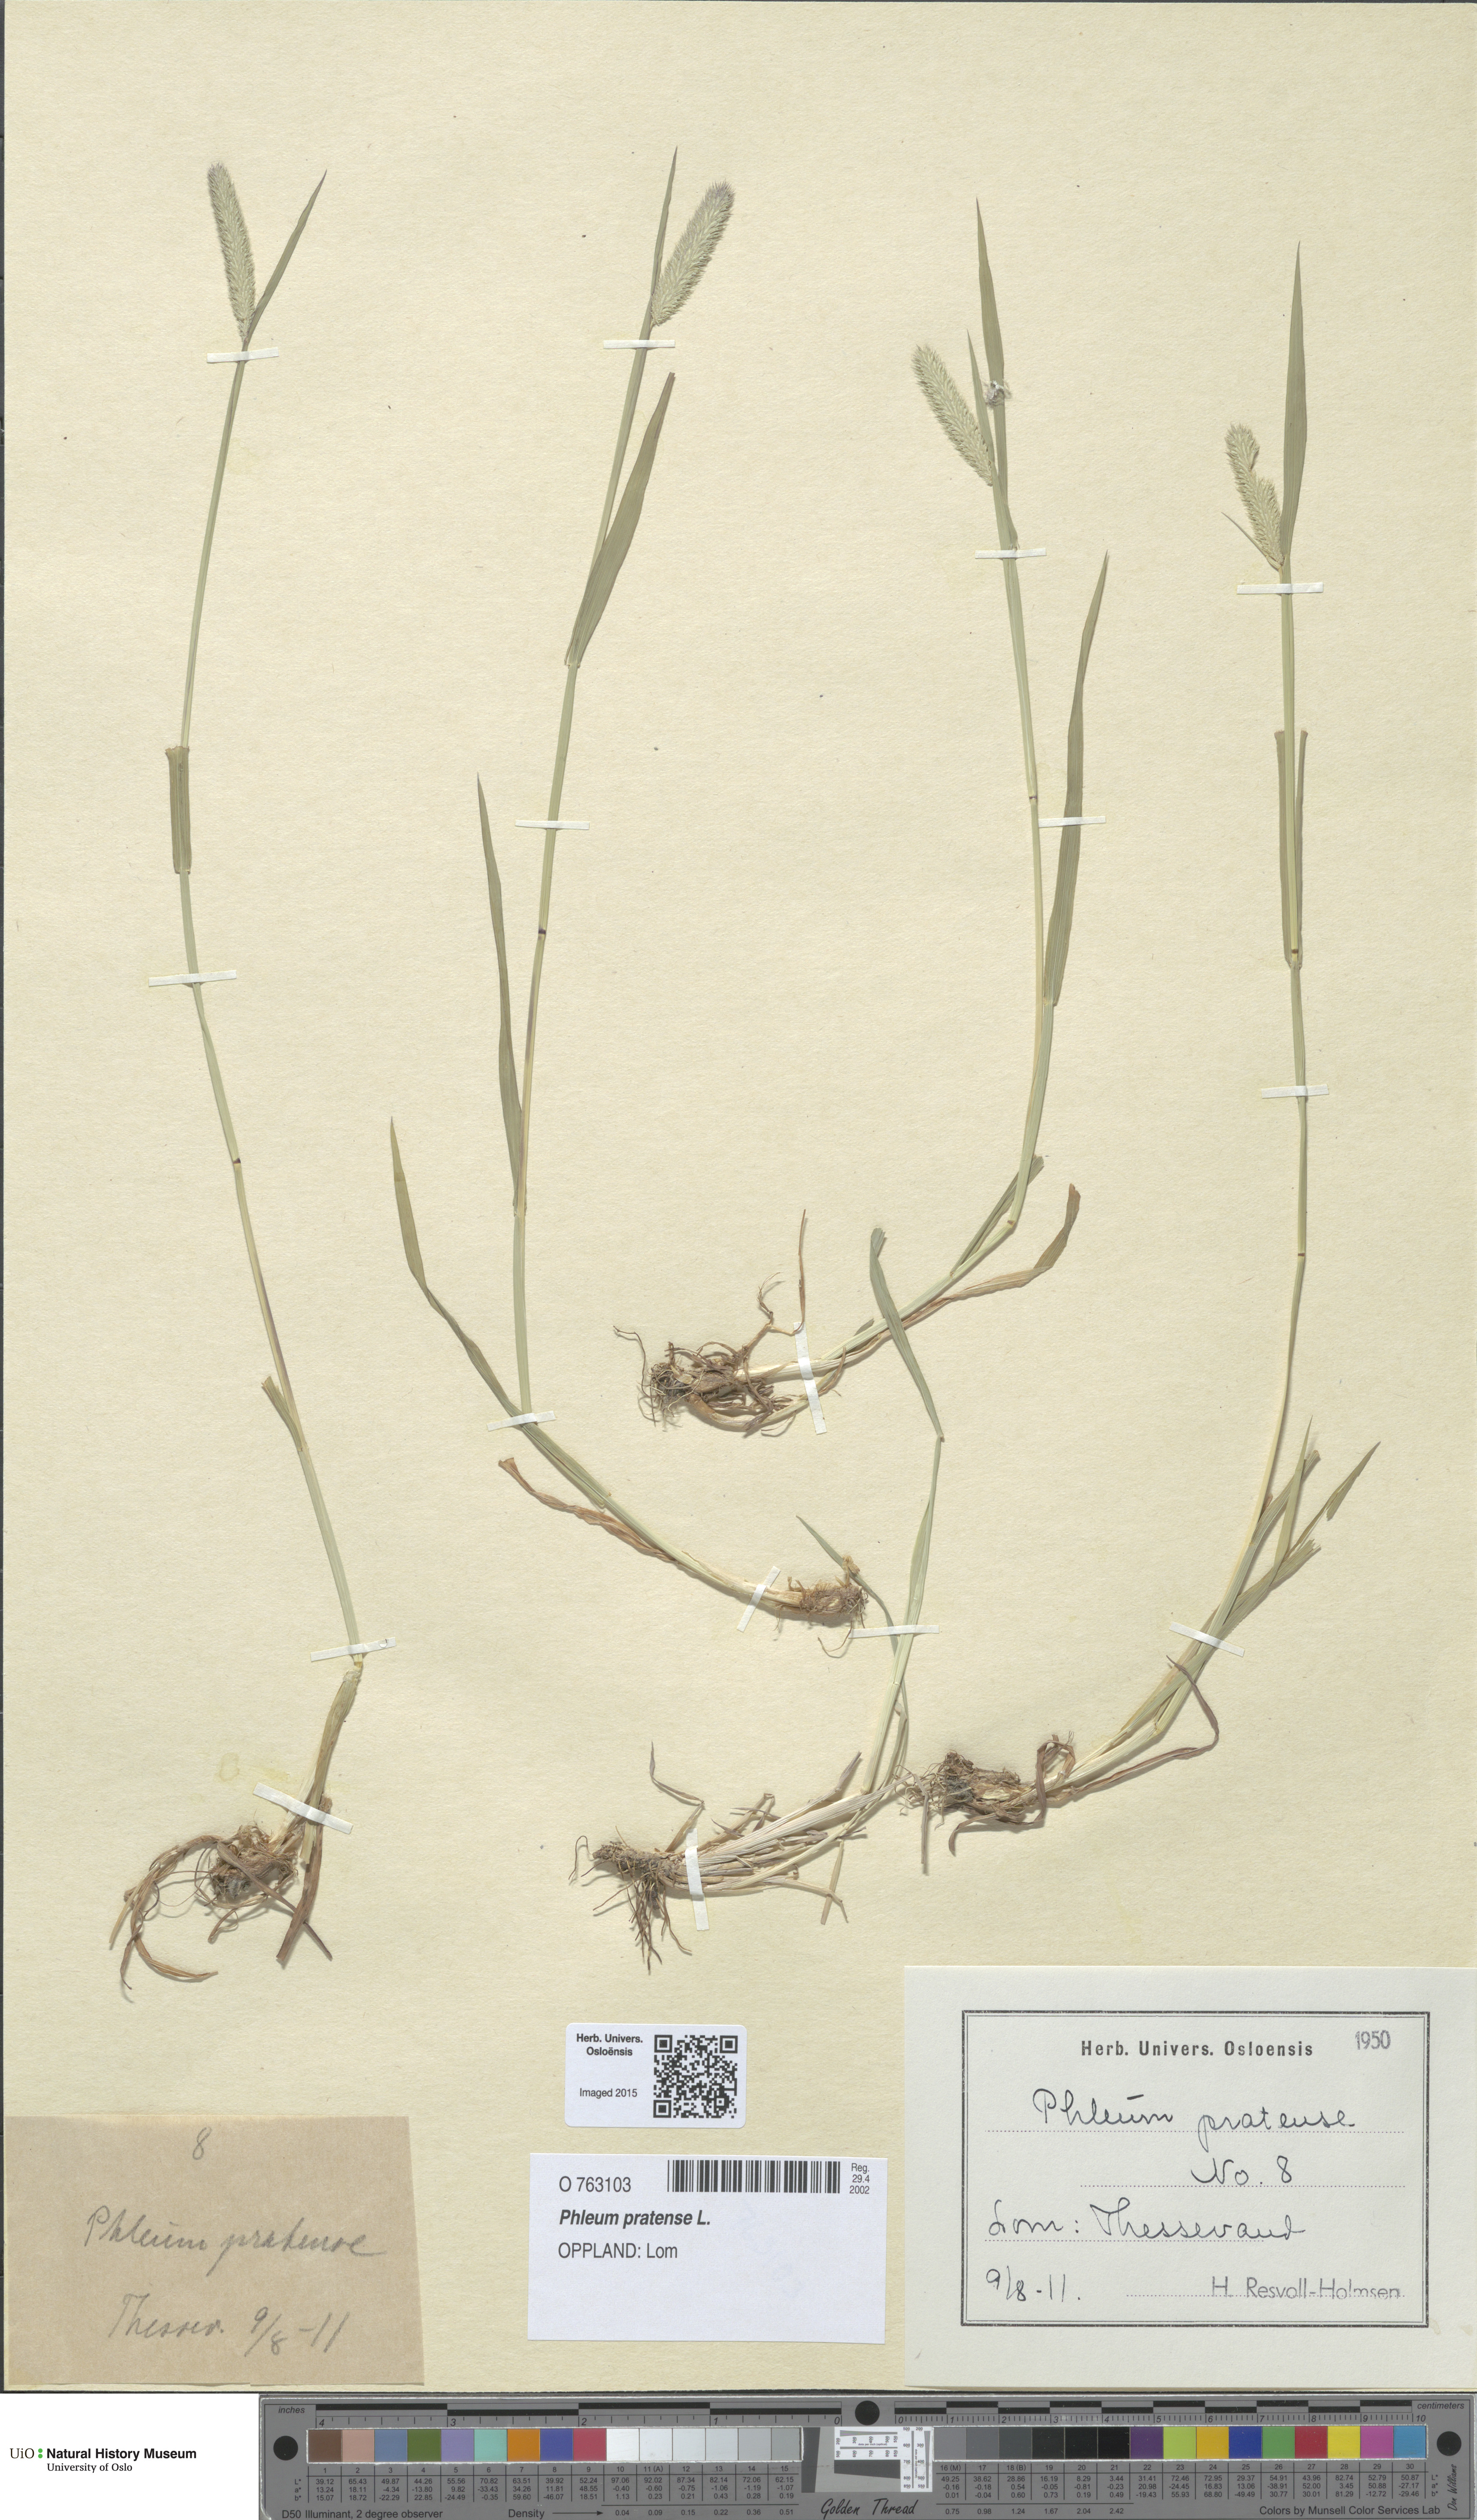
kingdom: Plantae
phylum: Tracheophyta
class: Liliopsida
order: Poales
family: Poaceae
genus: Phleum
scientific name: Phleum pratense
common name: Timothy grass
